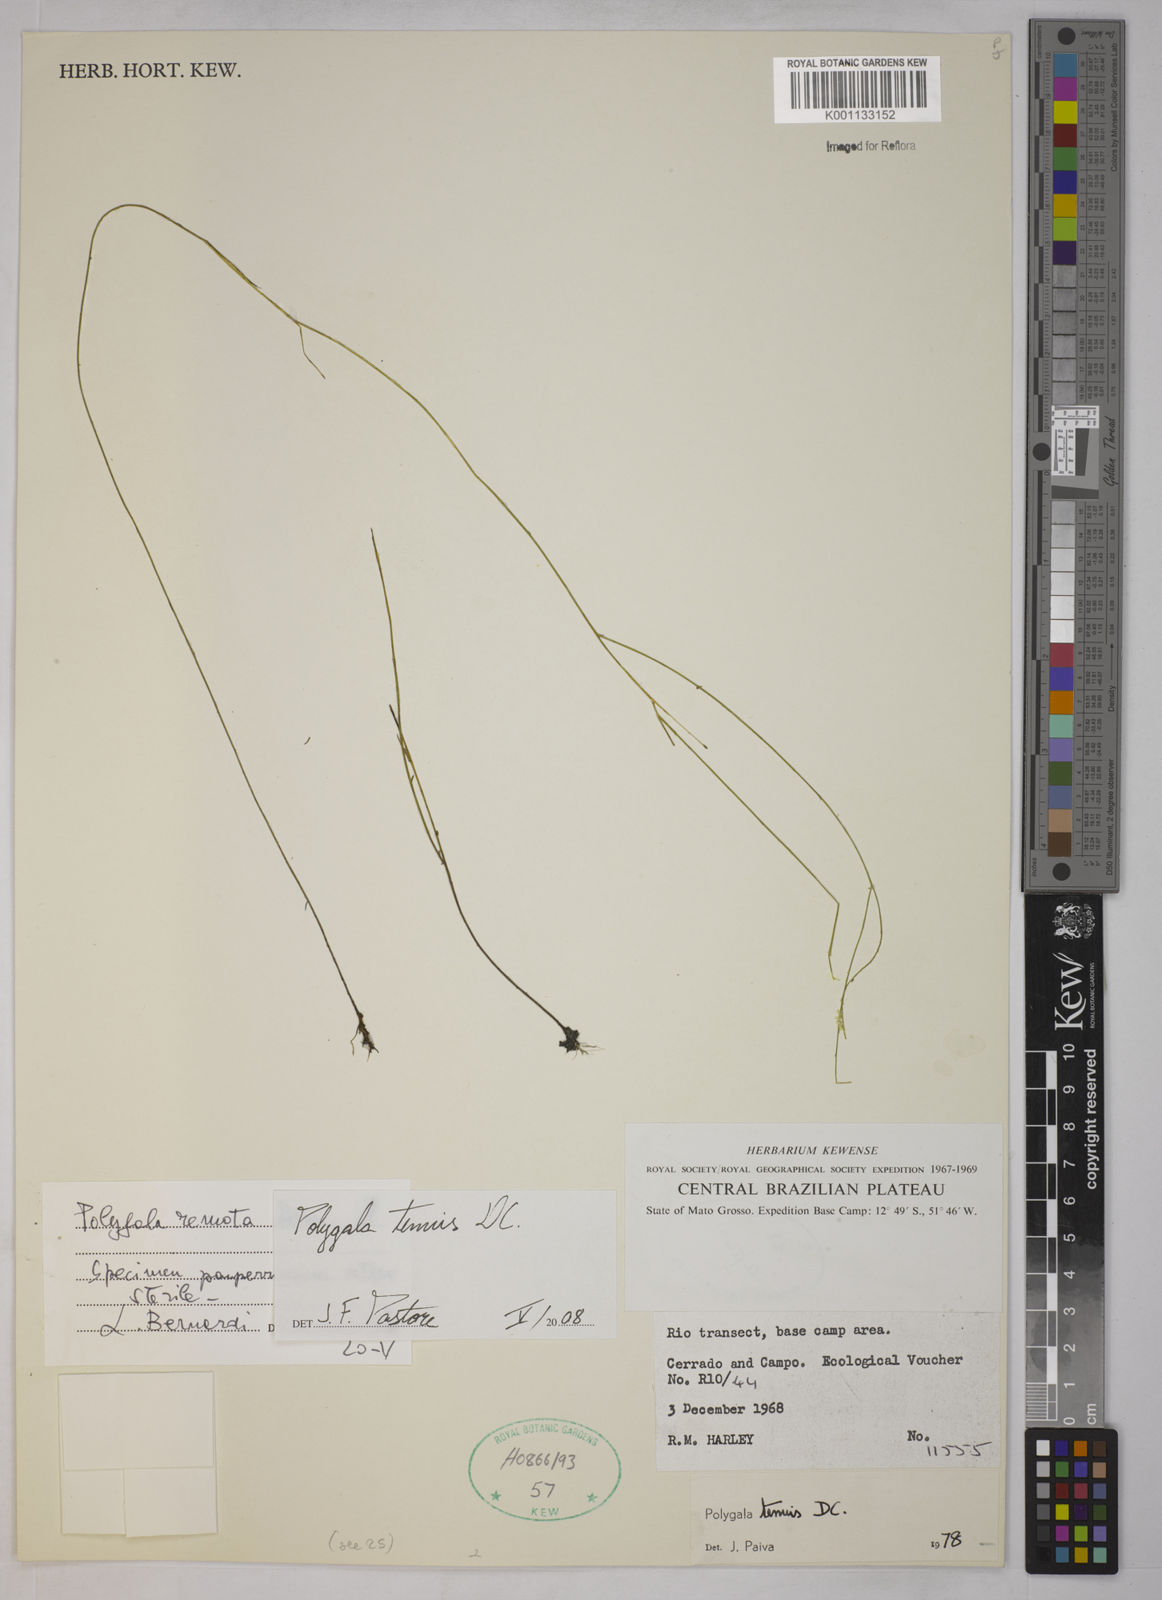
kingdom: Plantae
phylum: Tracheophyta
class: Magnoliopsida
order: Fabales
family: Polygalaceae
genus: Polygala
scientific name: Polygala tenuis
